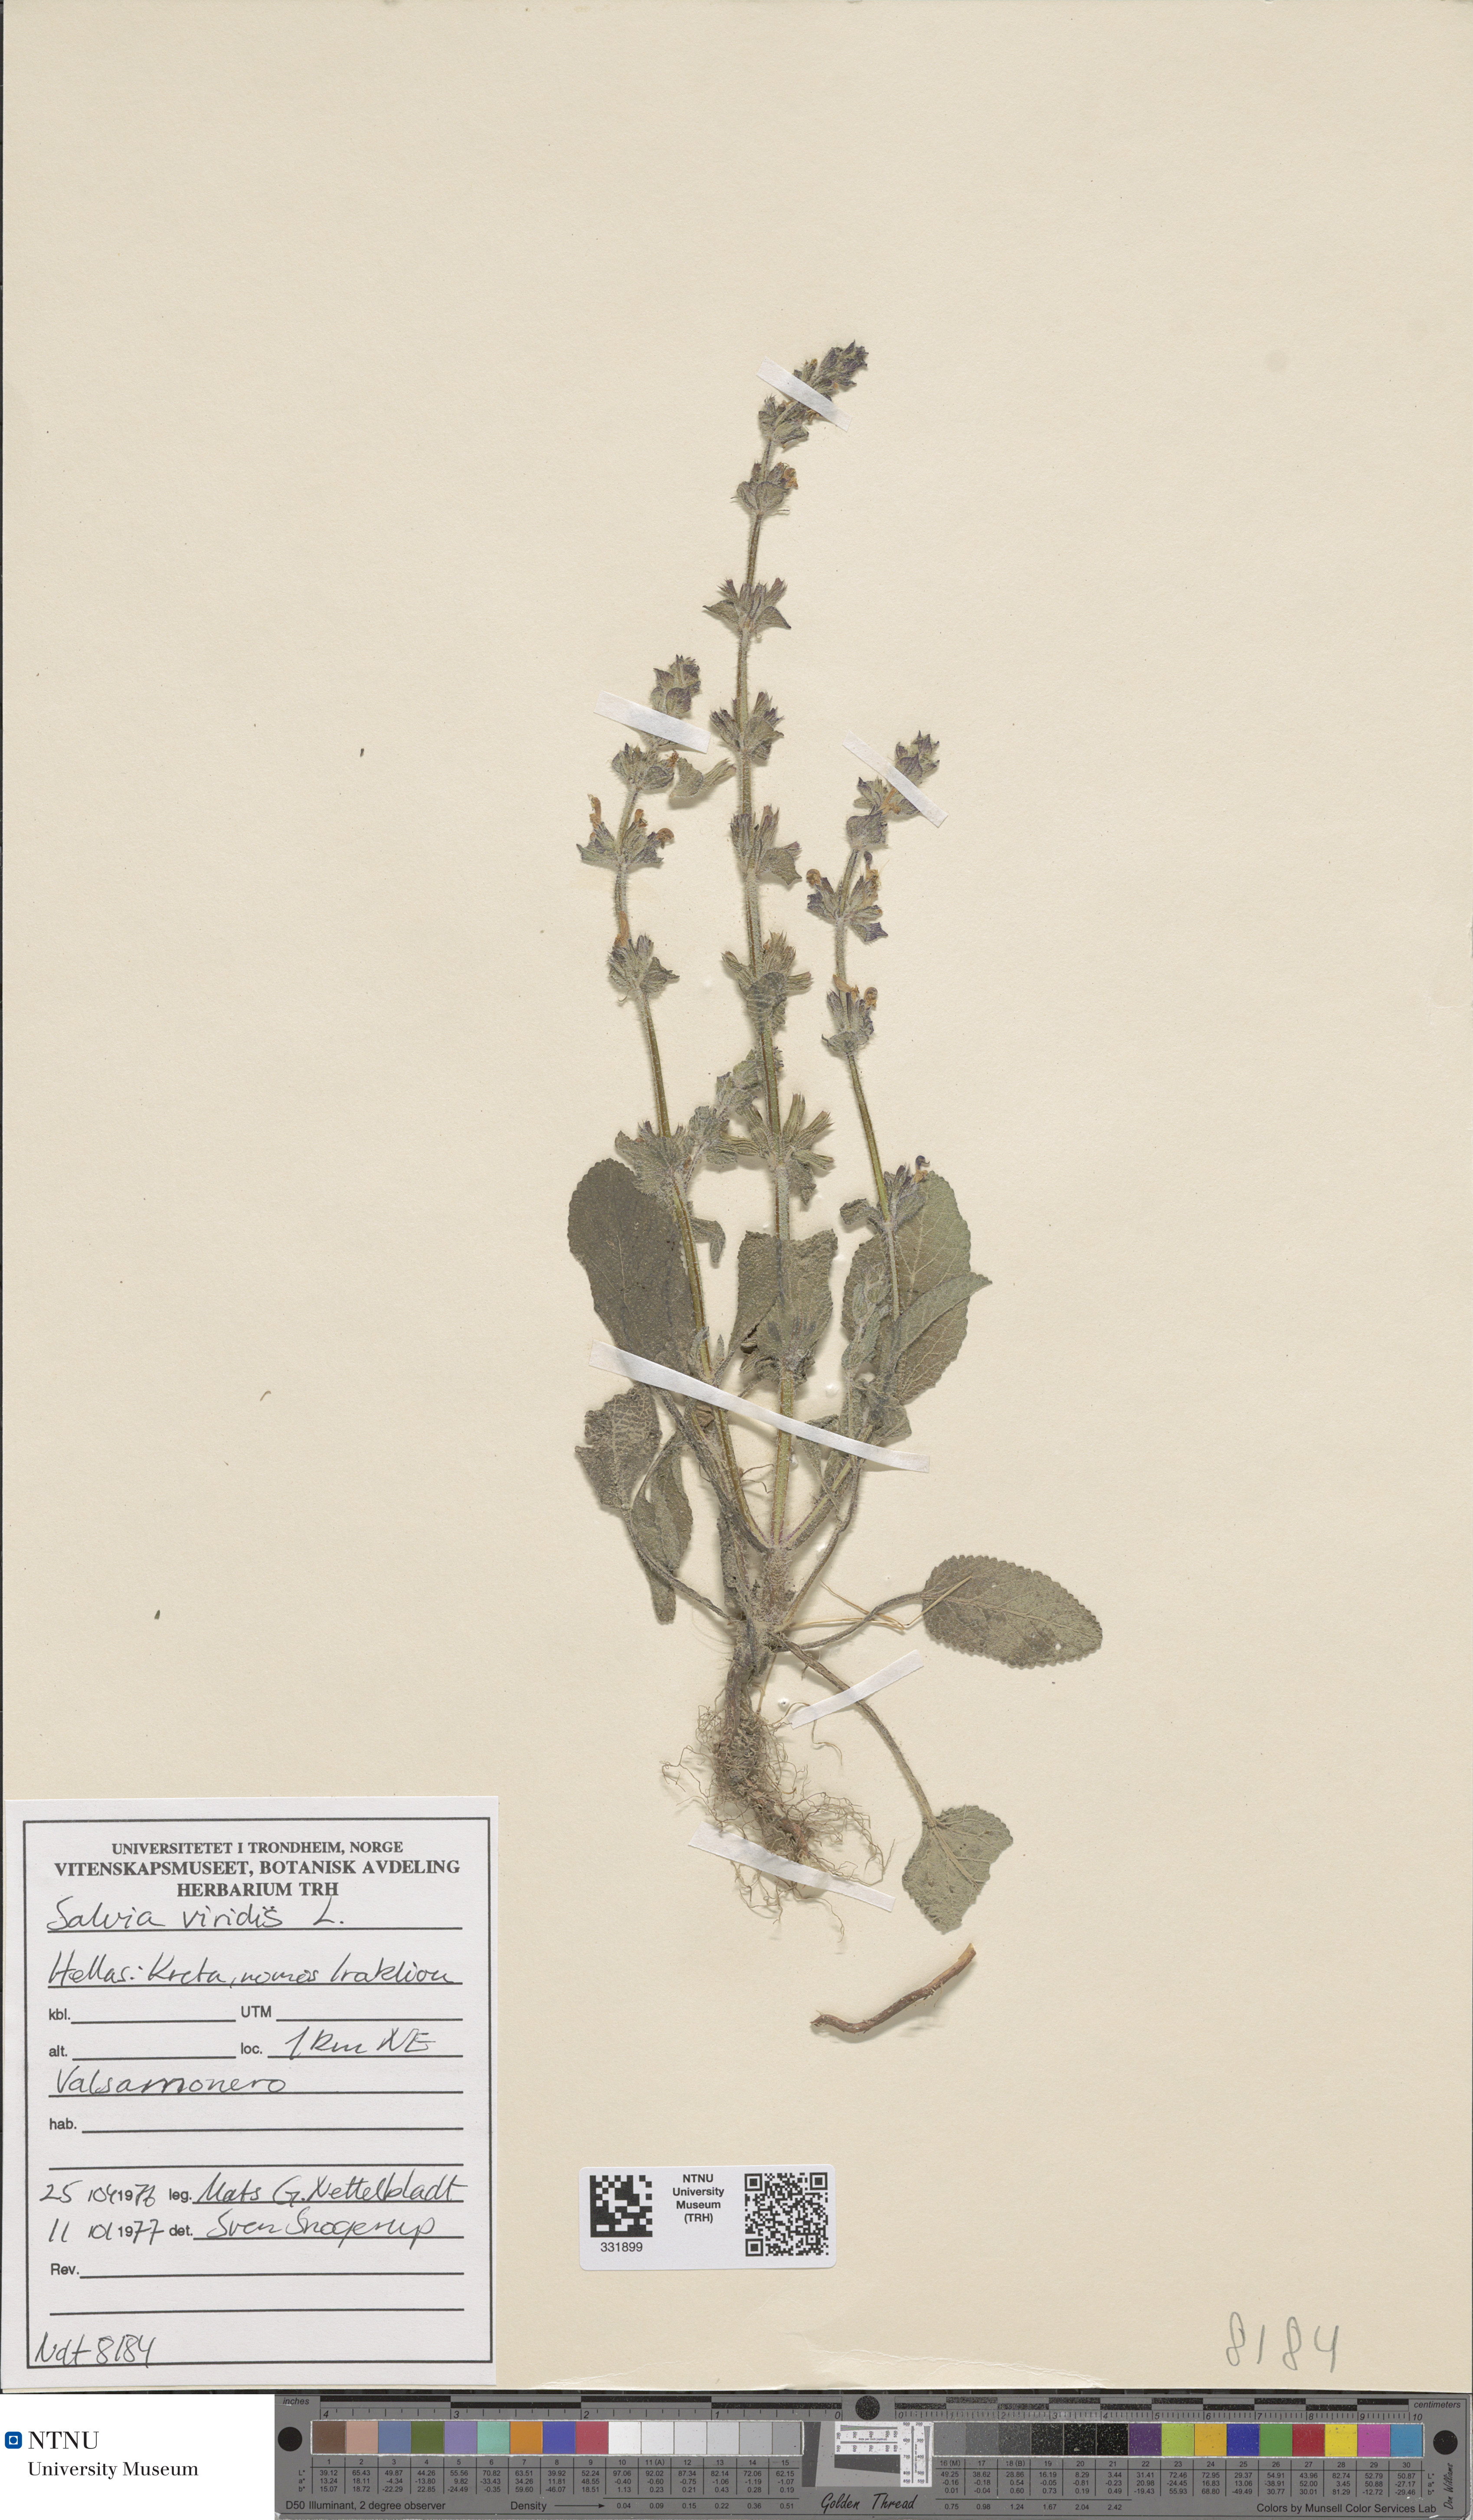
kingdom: Plantae
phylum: Tracheophyta
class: Magnoliopsida
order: Lamiales
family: Lamiaceae
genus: Salvia
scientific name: Salvia viridis
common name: Annual clary
